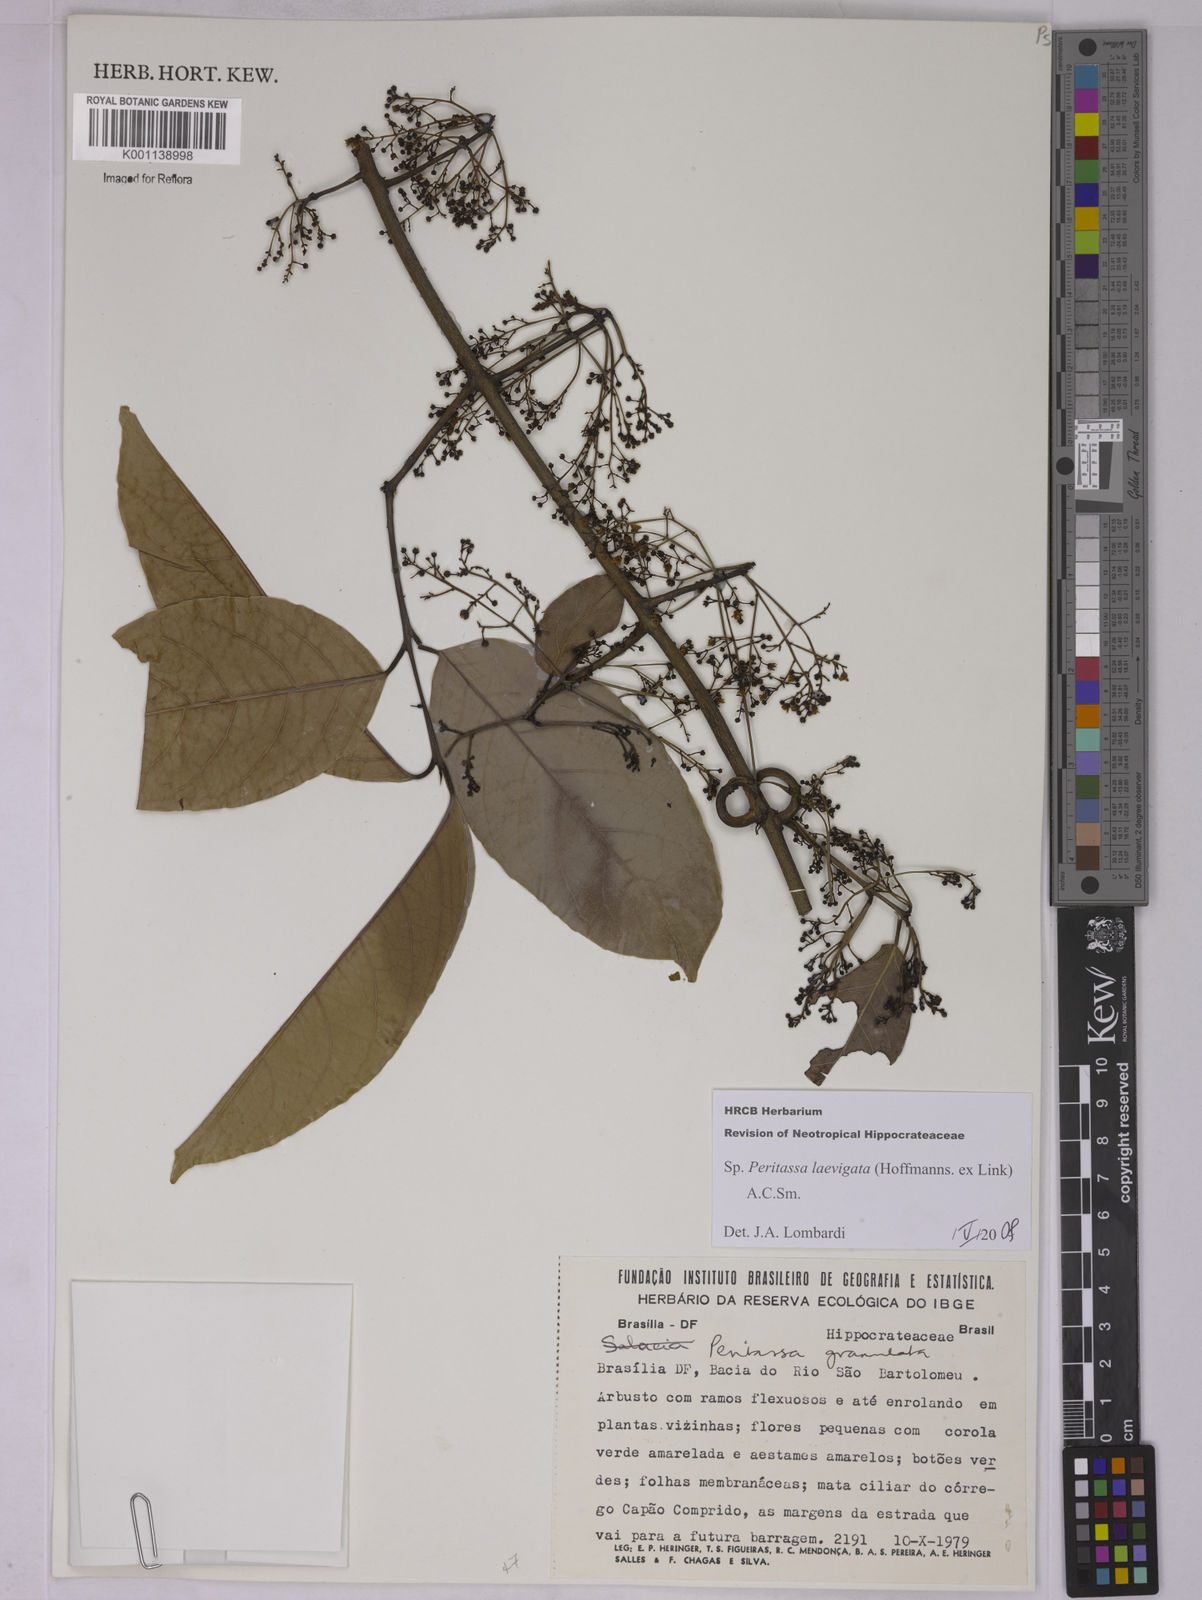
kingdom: Plantae
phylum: Tracheophyta
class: Magnoliopsida
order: Celastrales
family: Celastraceae
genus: Peritassa
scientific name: Peritassa laevigata
